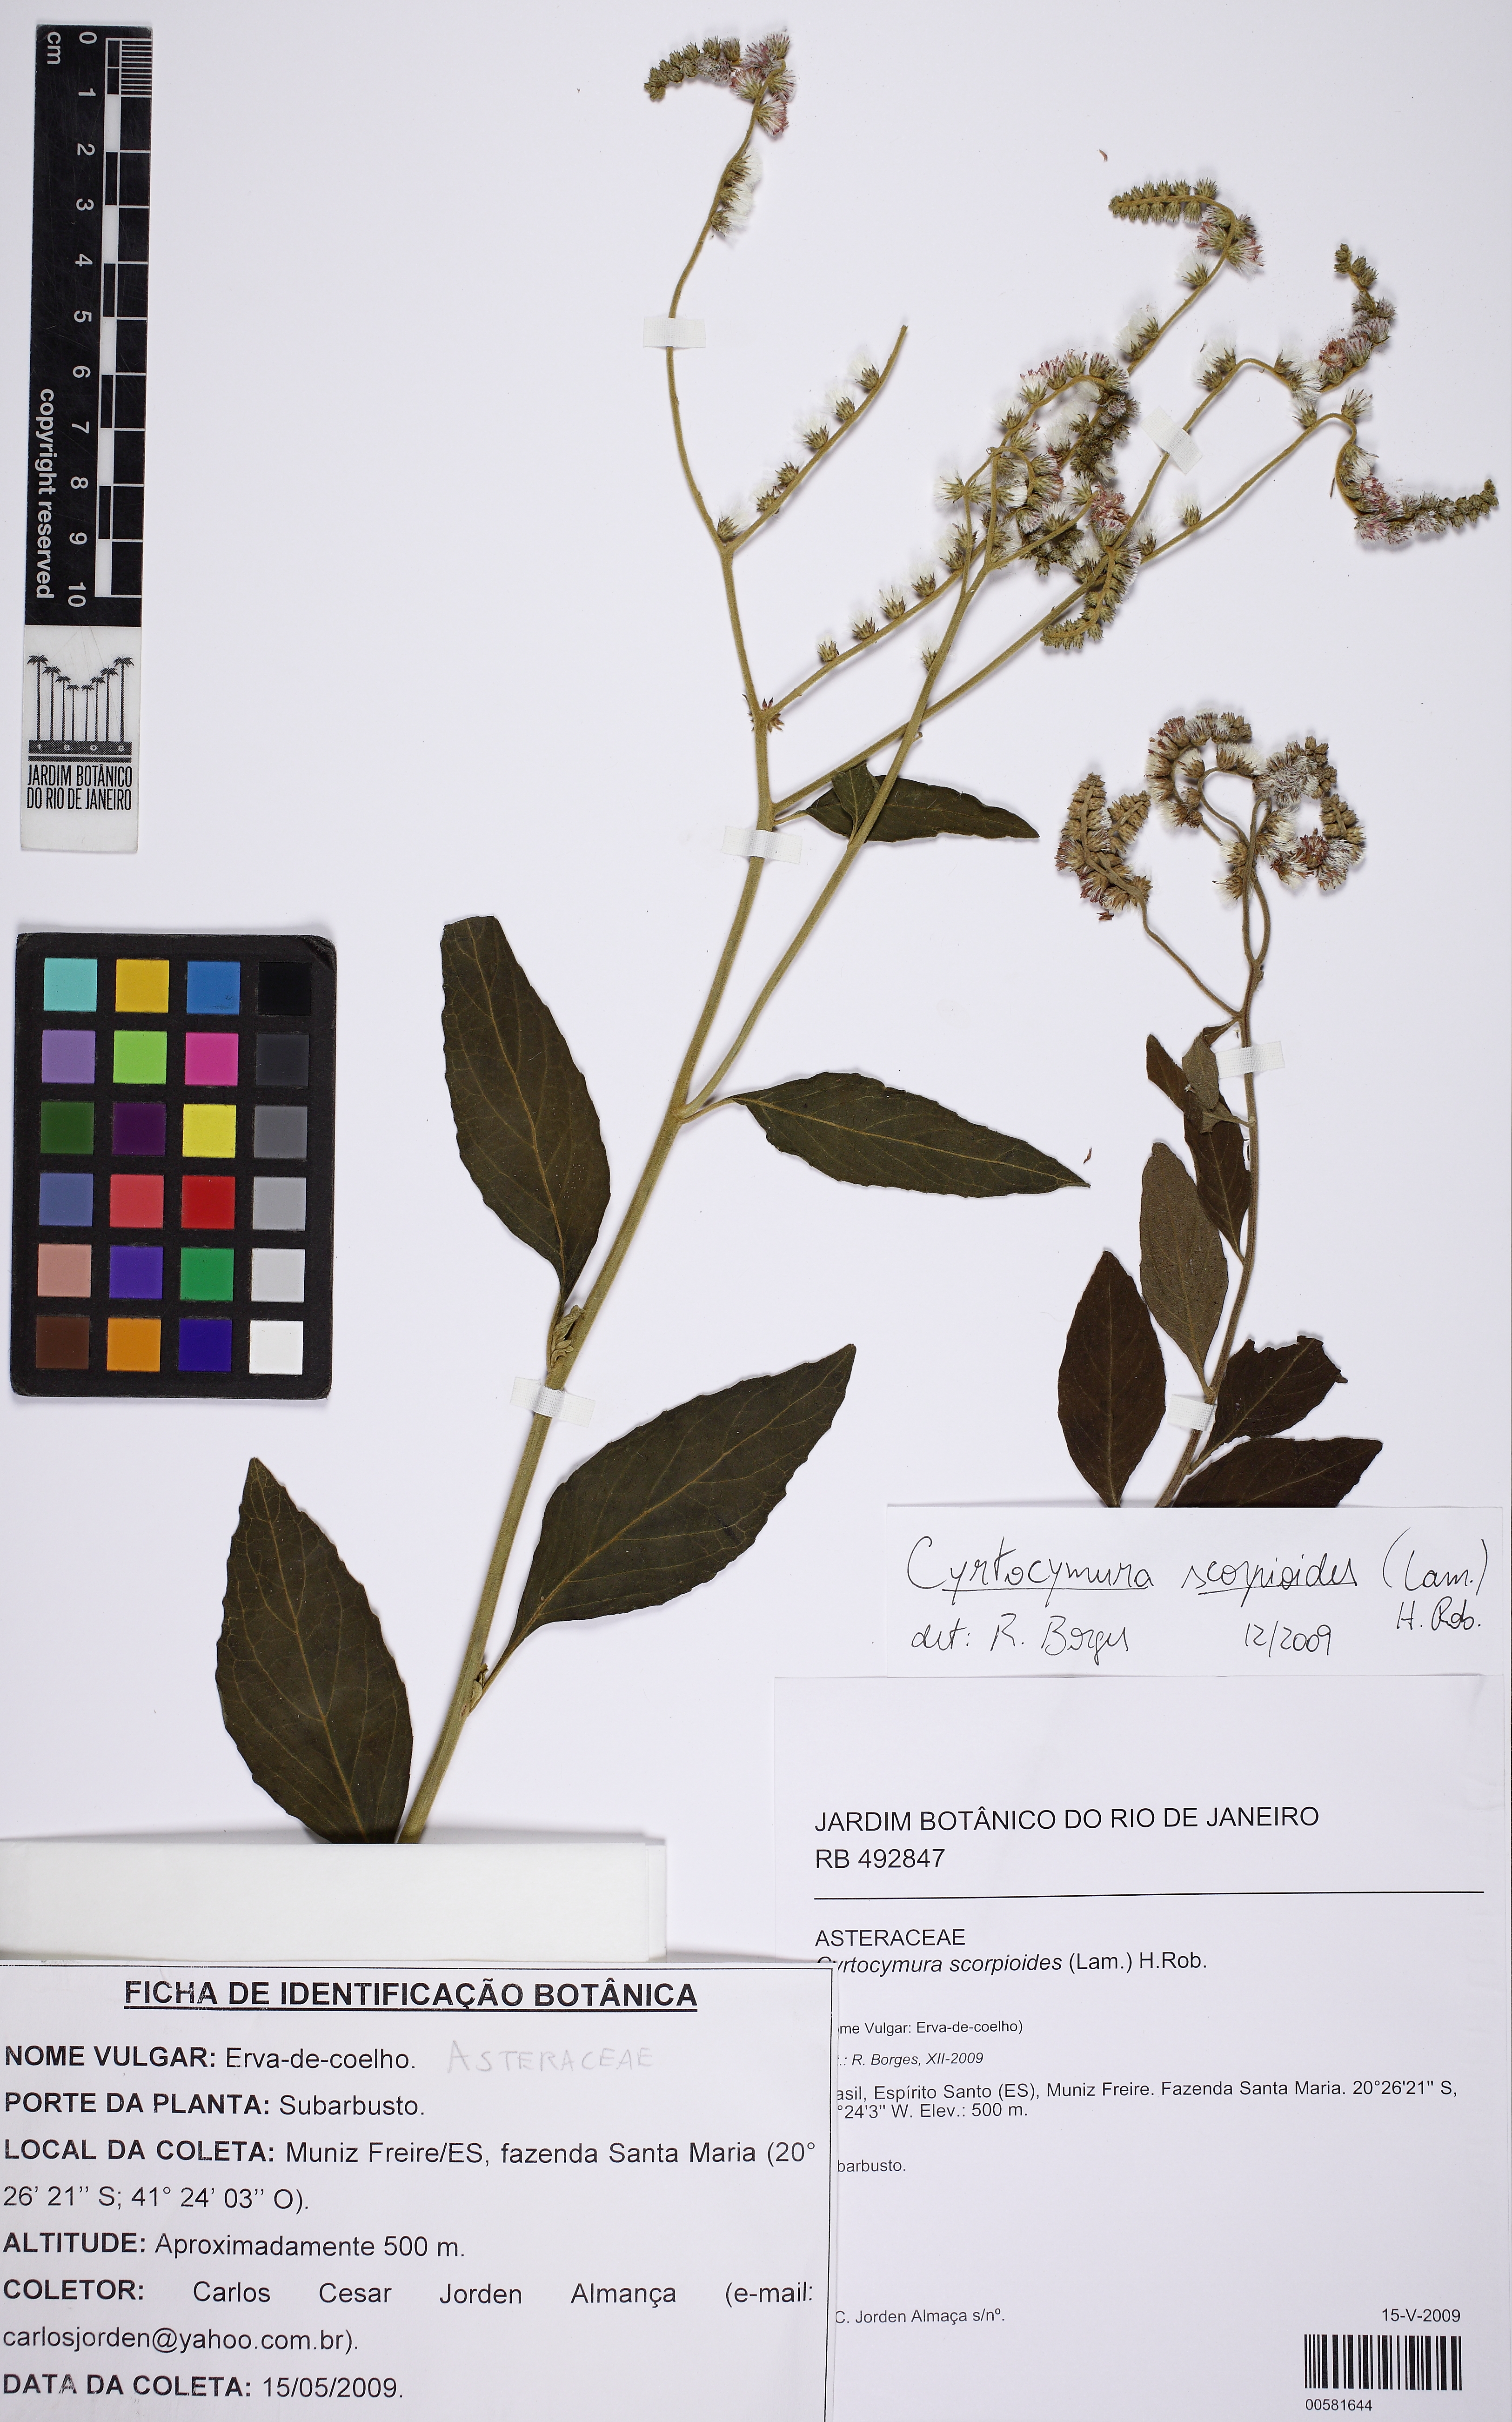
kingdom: Plantae
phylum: Tracheophyta
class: Magnoliopsida
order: Asterales
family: Asteraceae
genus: Cyrtocymura
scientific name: Cyrtocymura scorpioides
